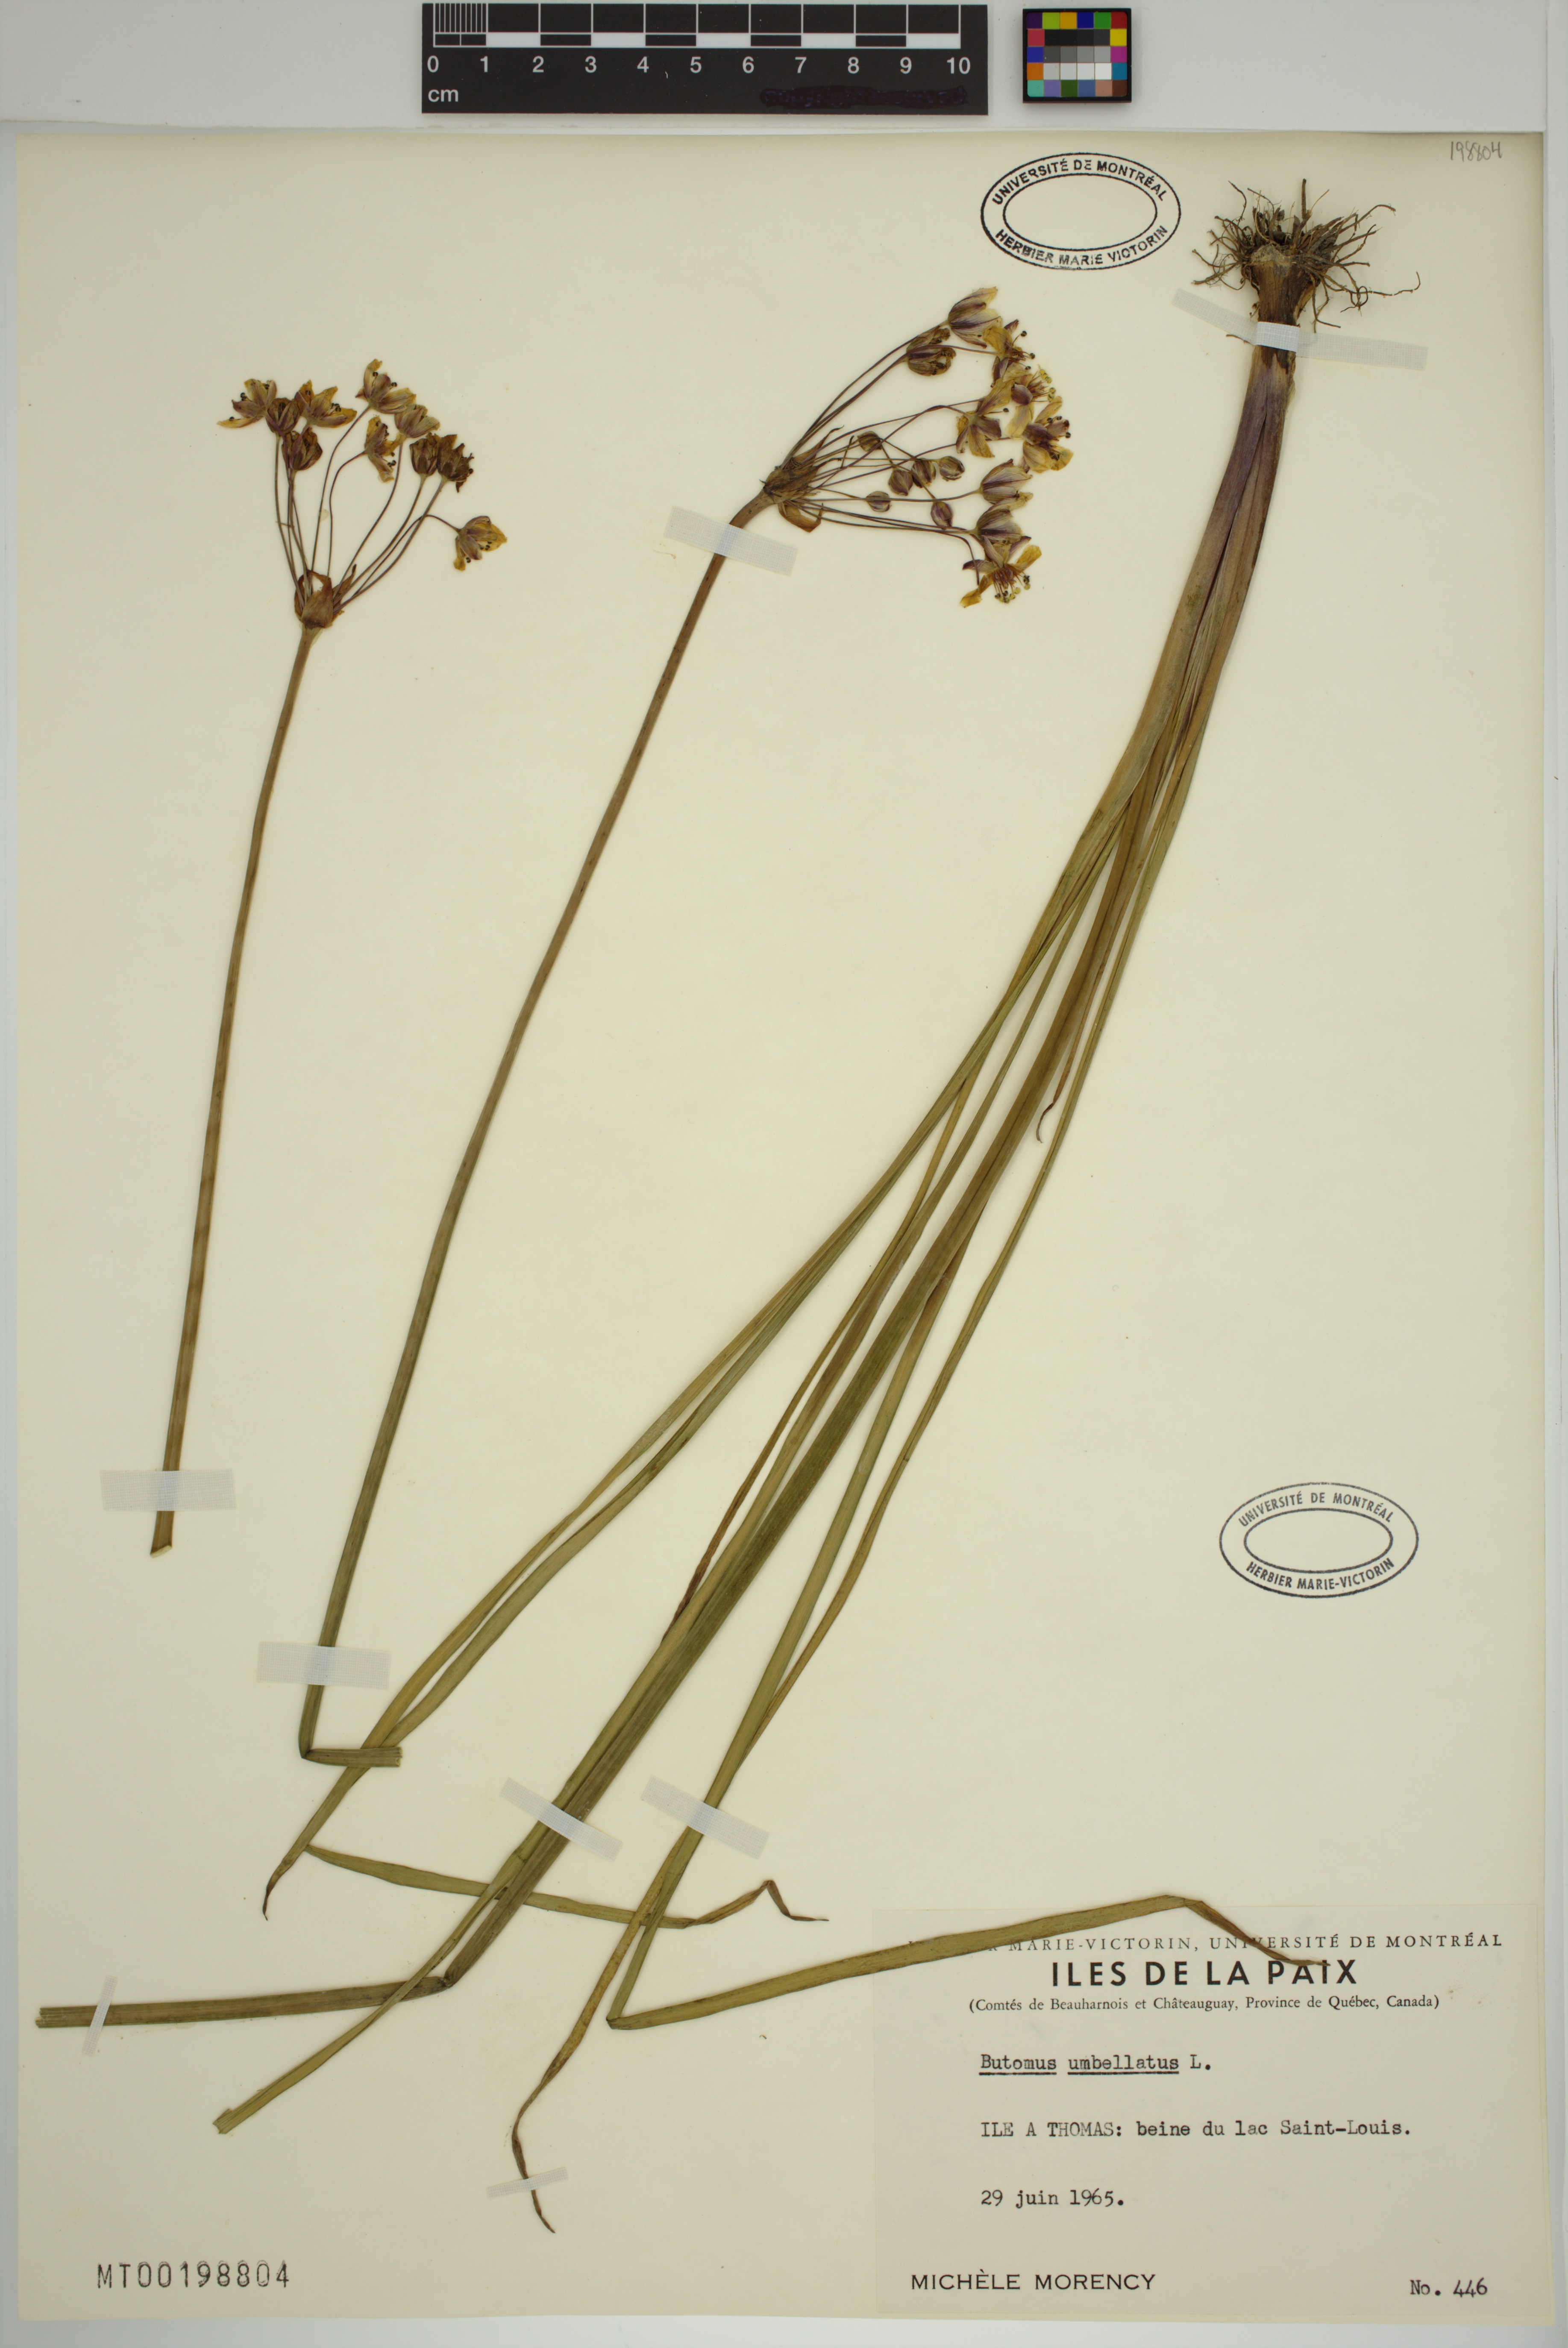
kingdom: Plantae
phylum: Tracheophyta
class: Liliopsida
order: Alismatales
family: Butomaceae
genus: Butomus
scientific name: Butomus umbellatus
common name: Flowering-rush
